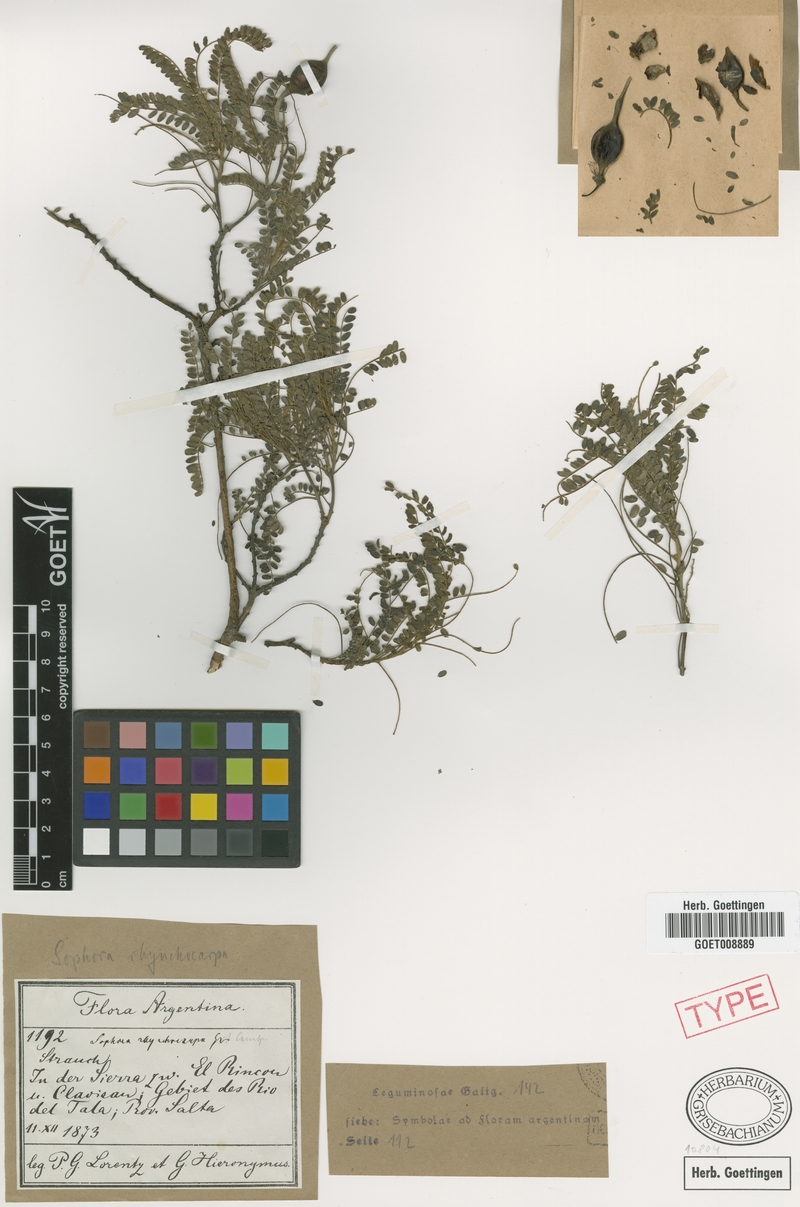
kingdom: Plantae
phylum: Tracheophyta
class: Magnoliopsida
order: Fabales
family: Fabaceae
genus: Sophora
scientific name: Sophora rhynchocarpa
